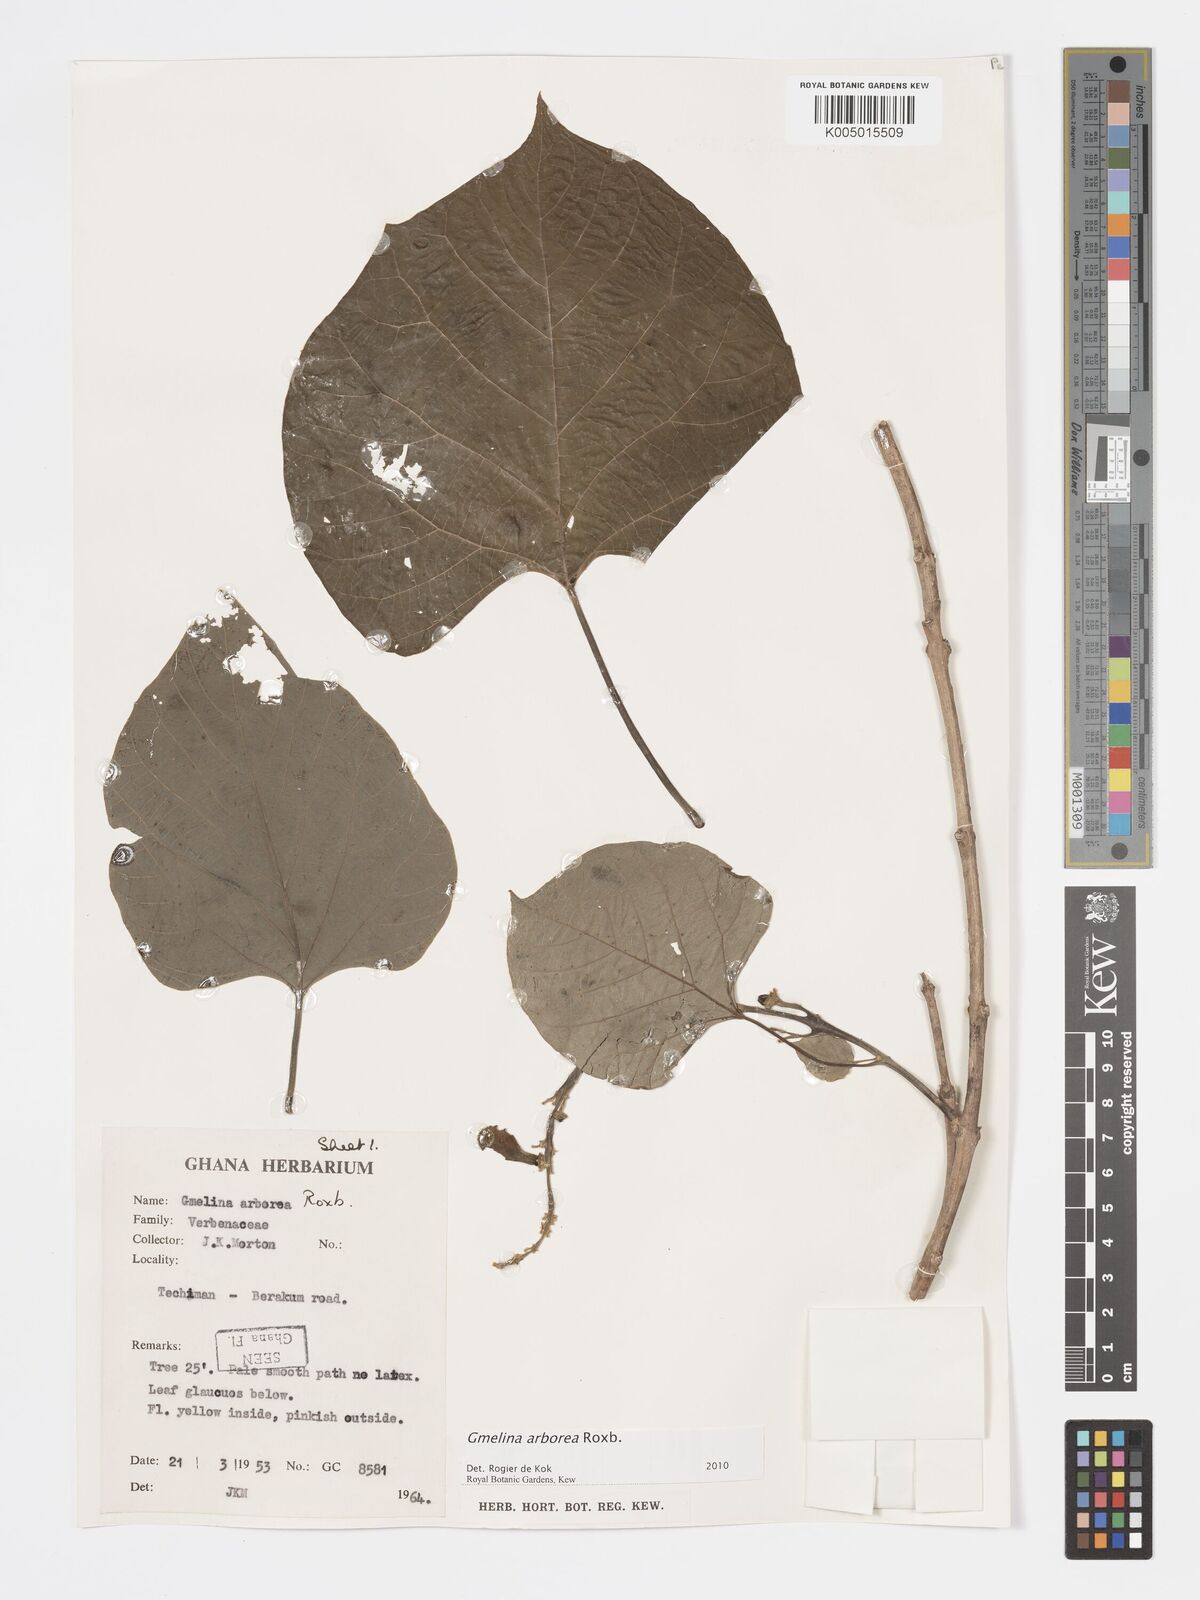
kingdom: Plantae
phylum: Tracheophyta
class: Magnoliopsida
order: Lamiales
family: Lamiaceae
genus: Gmelina
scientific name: Gmelina arborea
